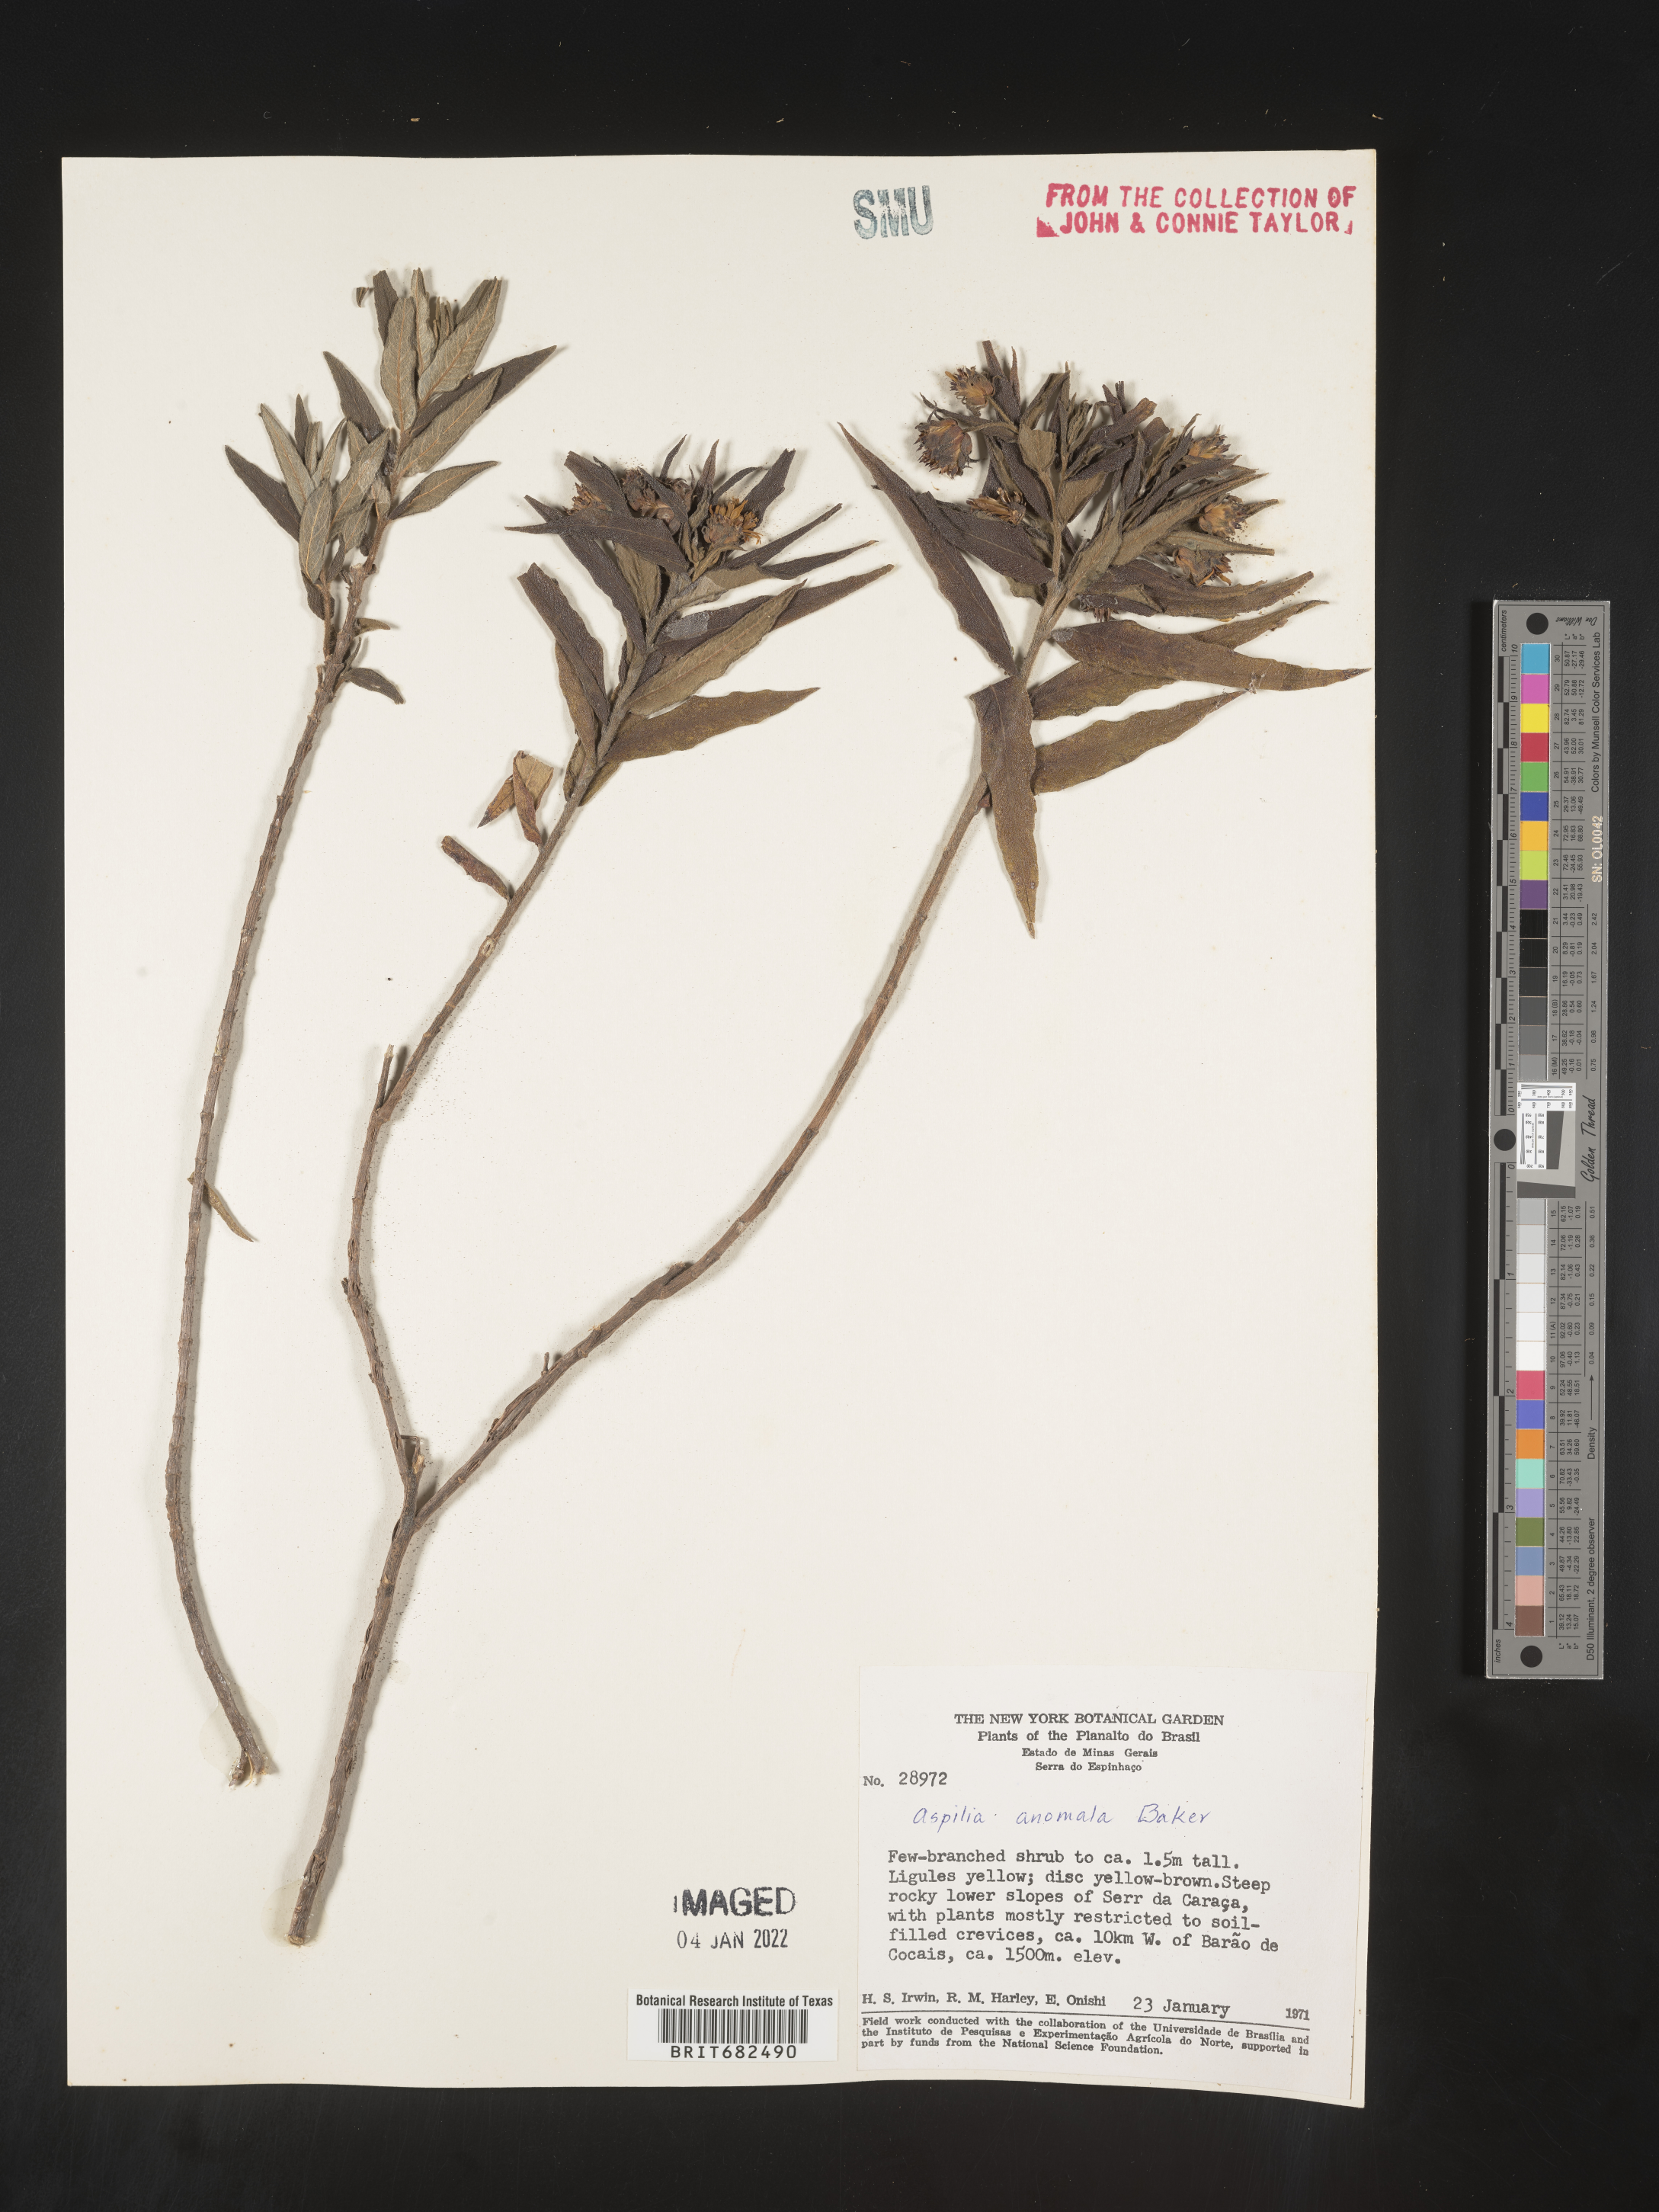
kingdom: Plantae
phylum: Tracheophyta
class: Magnoliopsida
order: Asterales
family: Asteraceae
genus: Aspilia
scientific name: Aspilia
